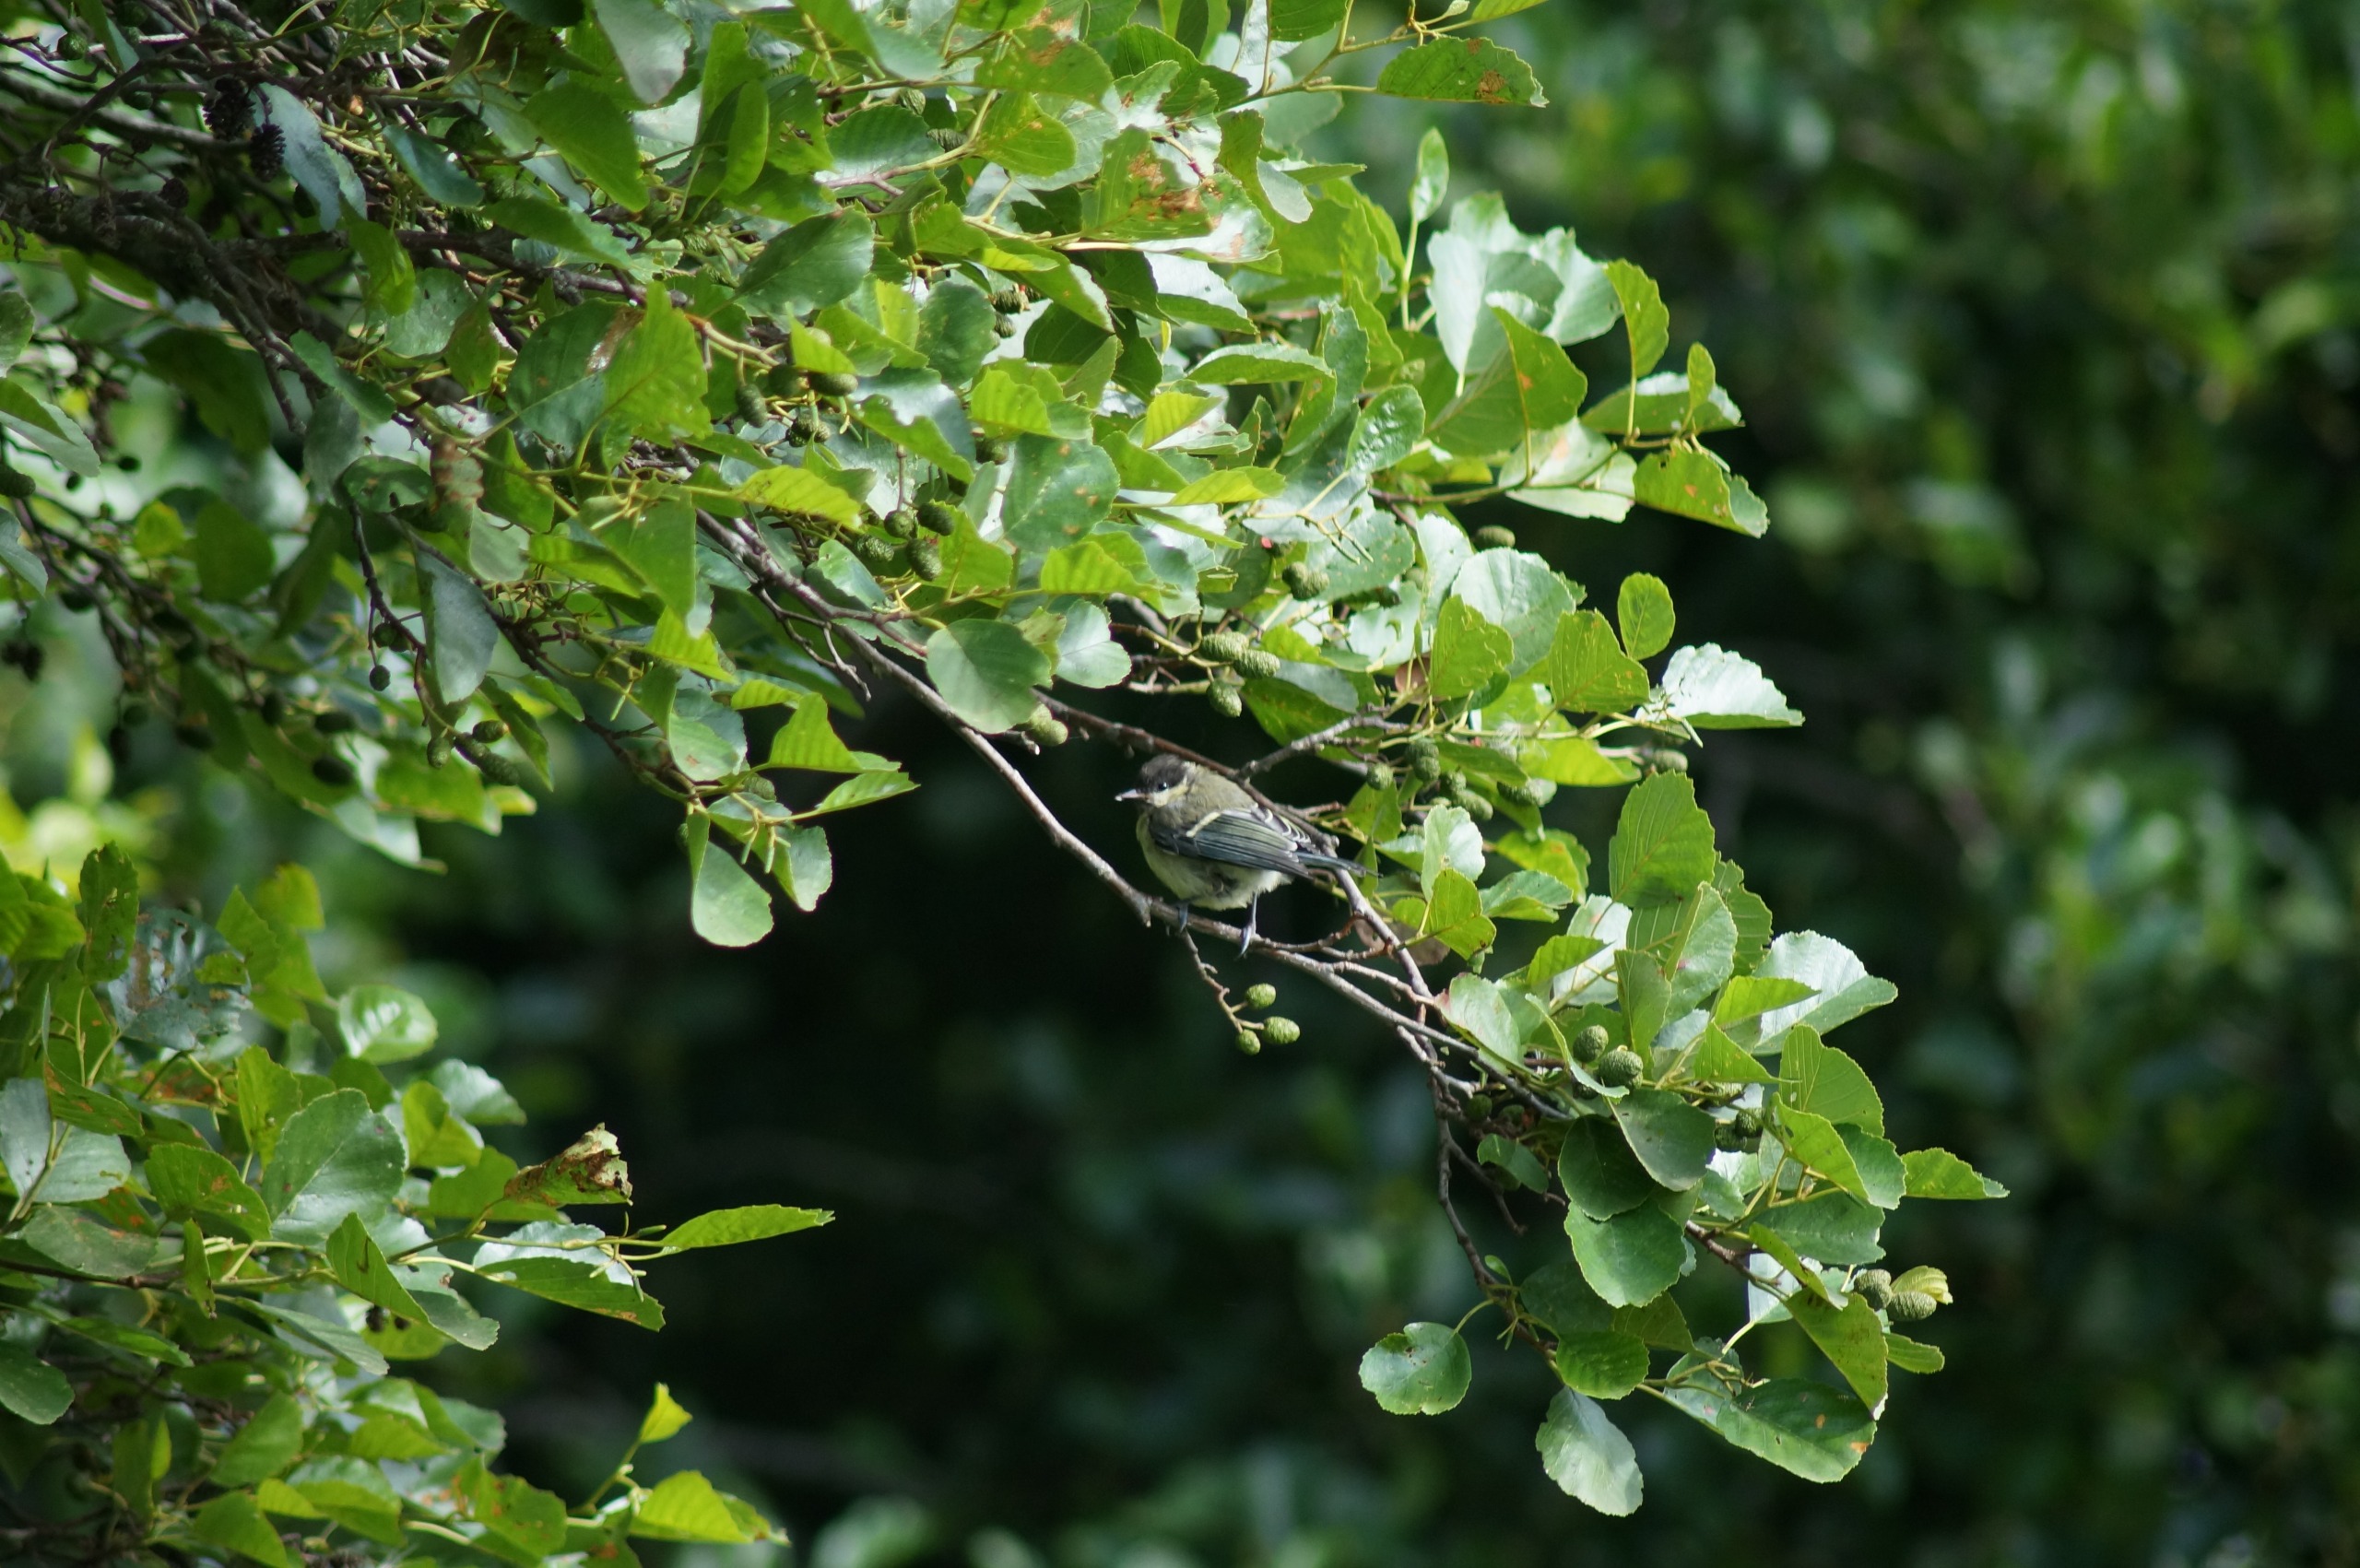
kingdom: Animalia
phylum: Chordata
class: Aves
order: Passeriformes
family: Paridae
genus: Parus
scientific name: Parus major
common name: Musvit
